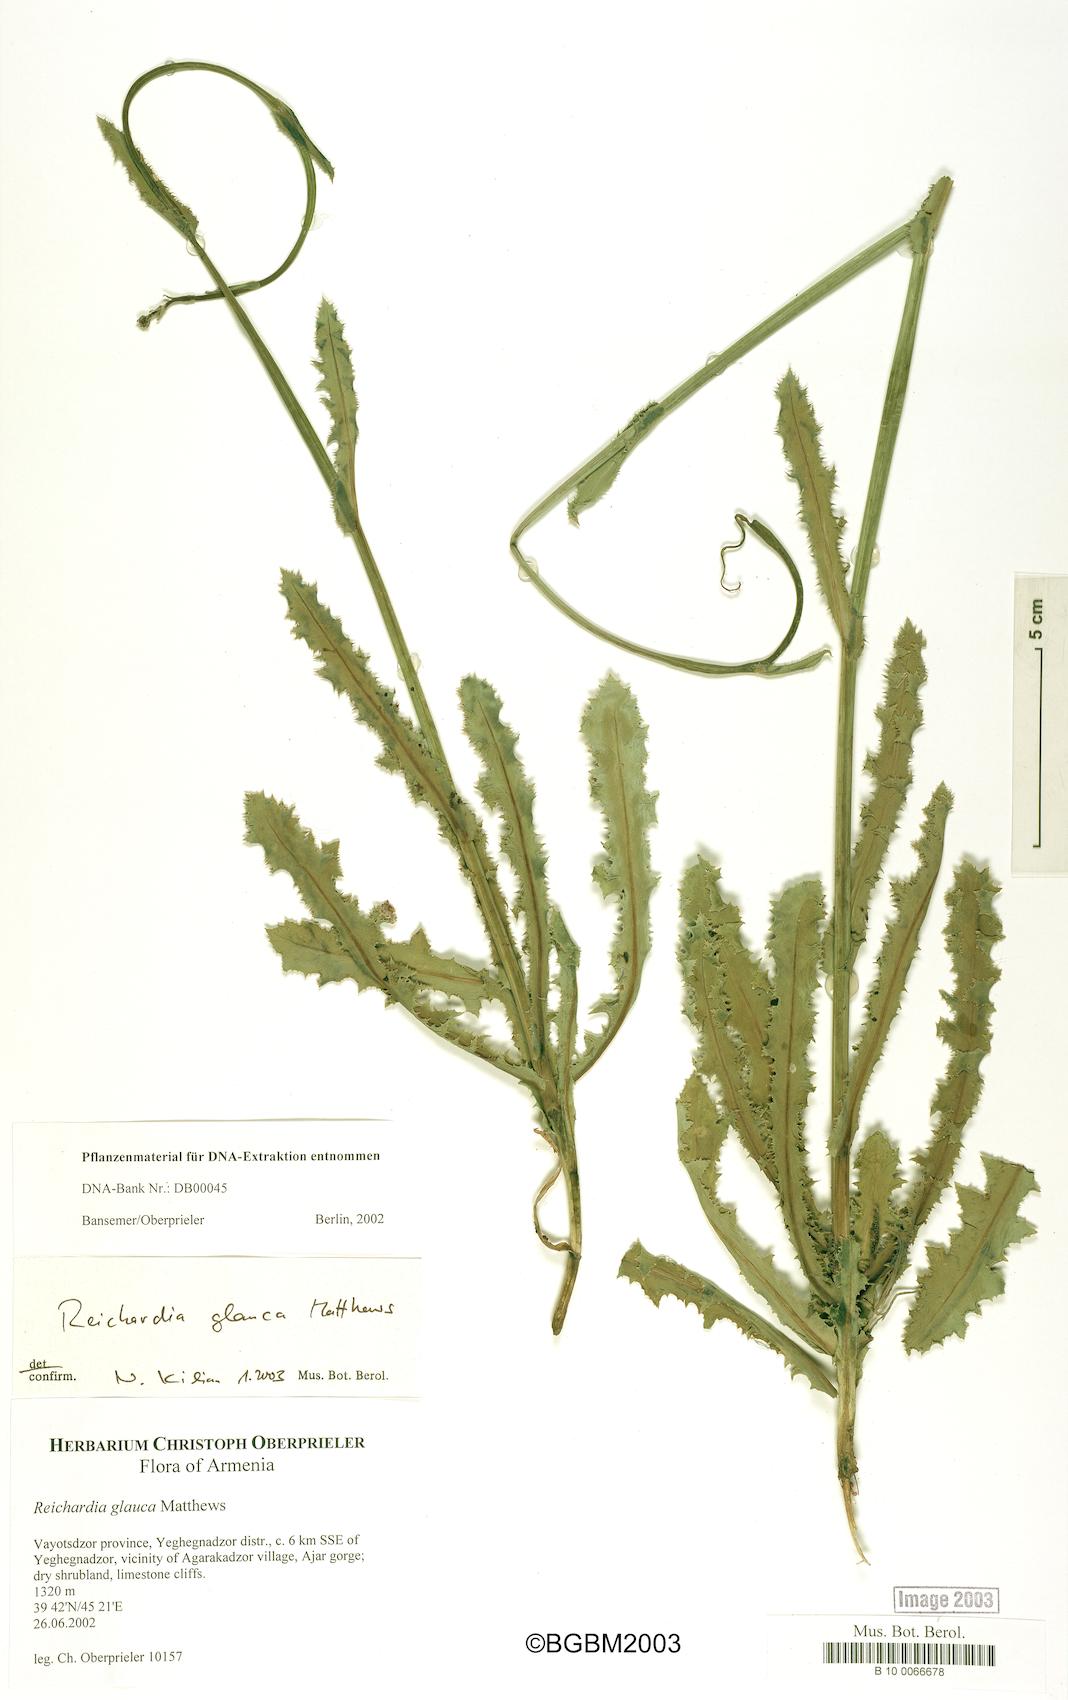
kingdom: Plantae
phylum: Tracheophyta
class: Magnoliopsida
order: Asterales
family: Asteraceae
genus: Reichardia
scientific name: Reichardia dichotoma
